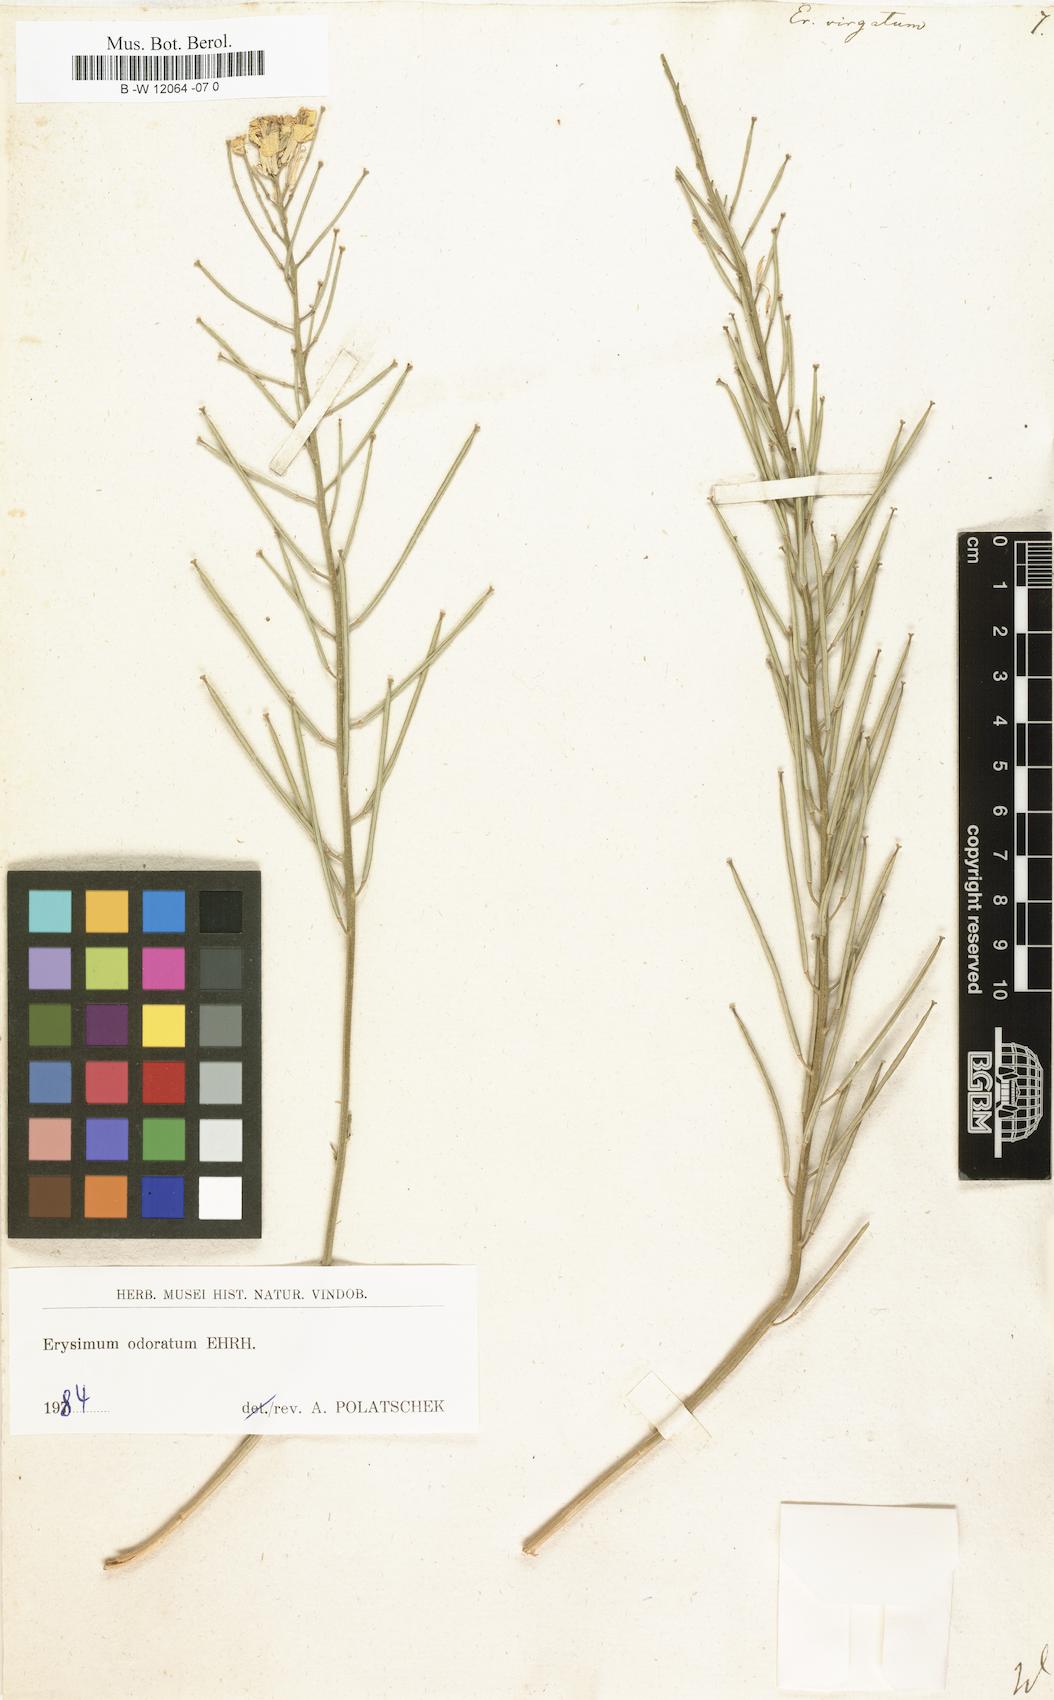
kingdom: Plantae
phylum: Tracheophyta
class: Magnoliopsida
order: Brassicales
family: Brassicaceae
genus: Erysimum
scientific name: Erysimum virgatum
